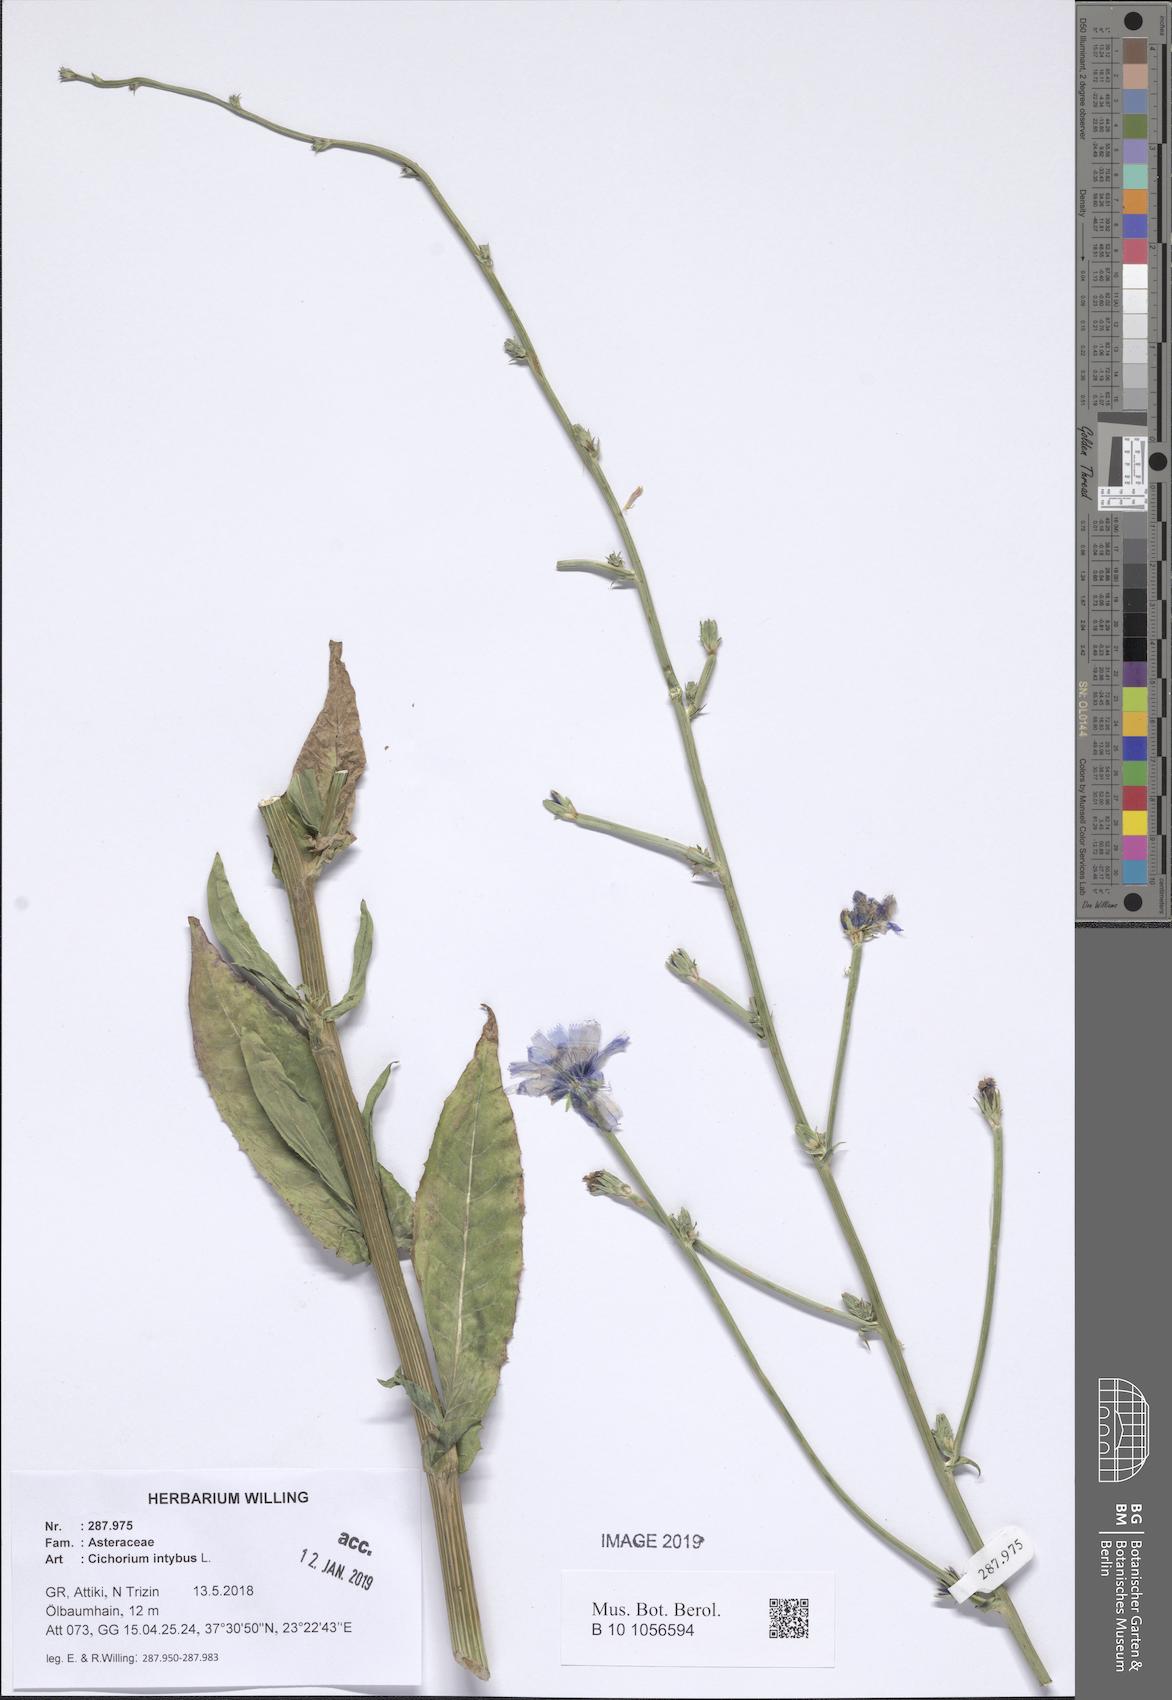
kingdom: Plantae
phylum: Tracheophyta
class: Magnoliopsida
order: Asterales
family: Asteraceae
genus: Cichorium
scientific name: Cichorium intybus
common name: Chicory
